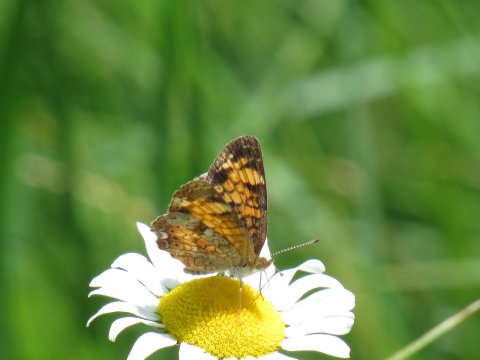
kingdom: Animalia
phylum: Arthropoda
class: Insecta
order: Lepidoptera
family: Nymphalidae
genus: Phyciodes
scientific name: Phyciodes
